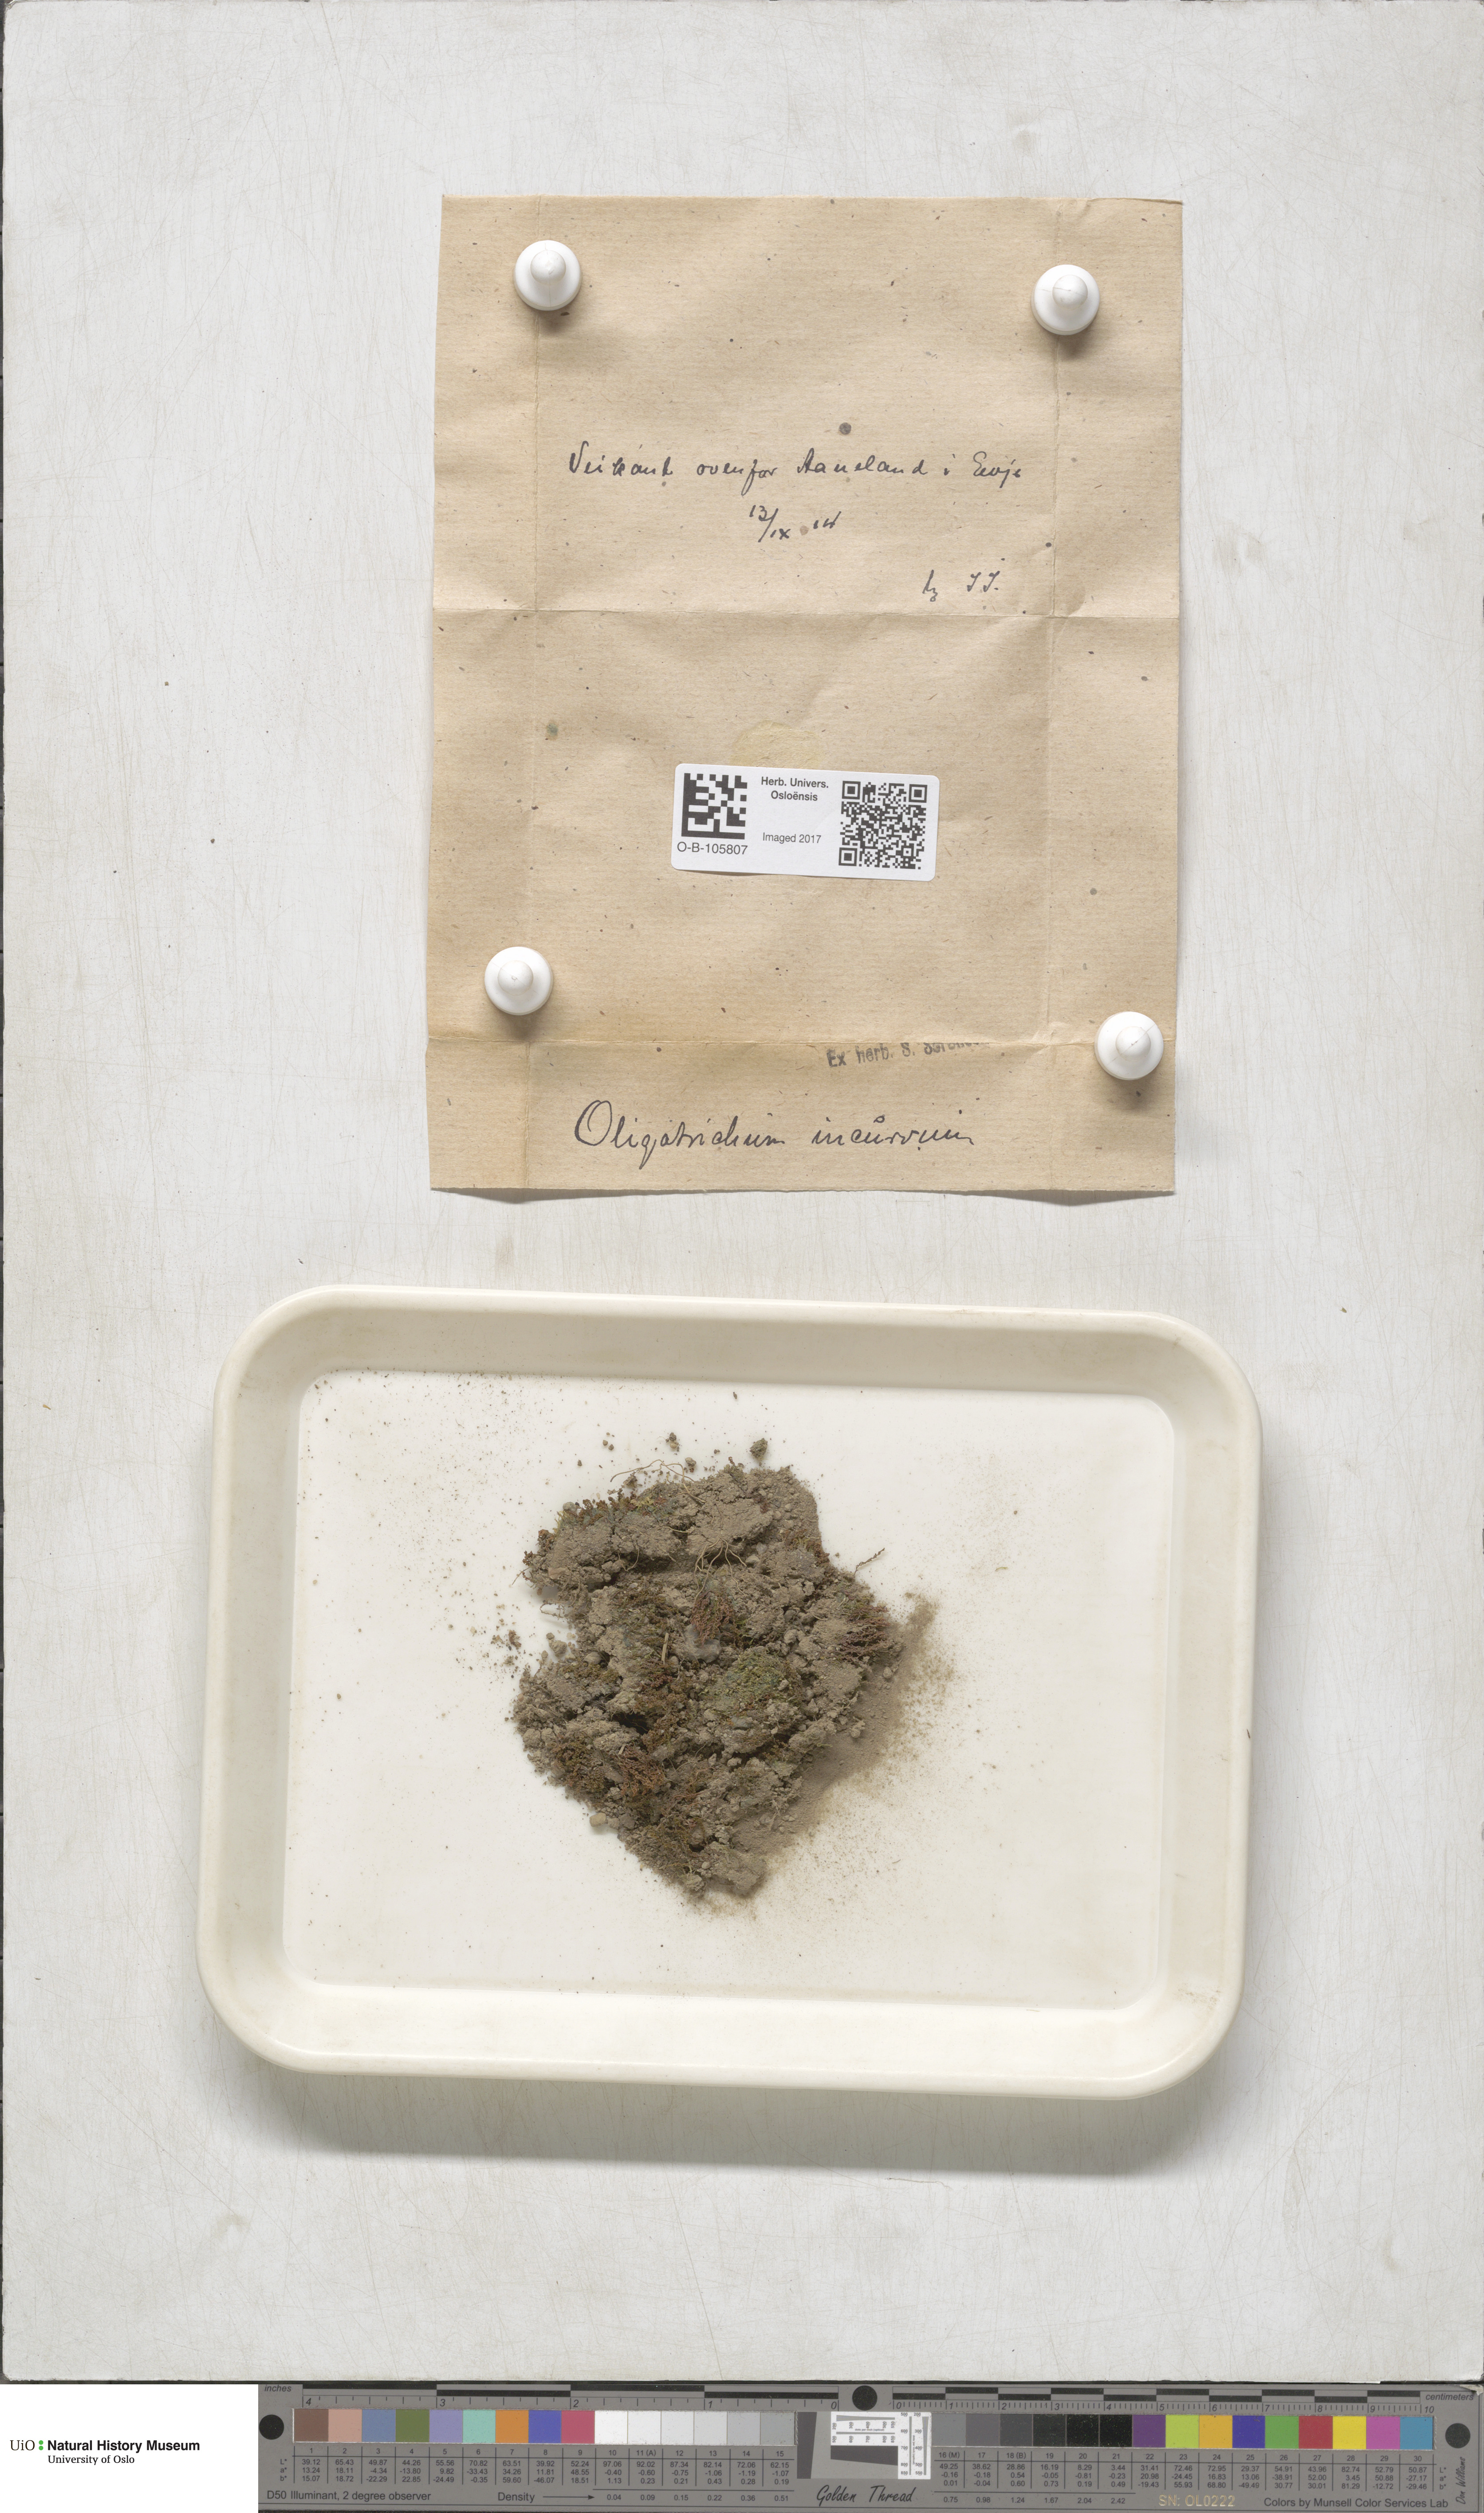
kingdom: Plantae
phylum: Bryophyta
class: Polytrichopsida
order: Polytrichales
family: Polytrichaceae
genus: Oligotrichum
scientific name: Oligotrichum hercynicum
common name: Hercynian hair moss
